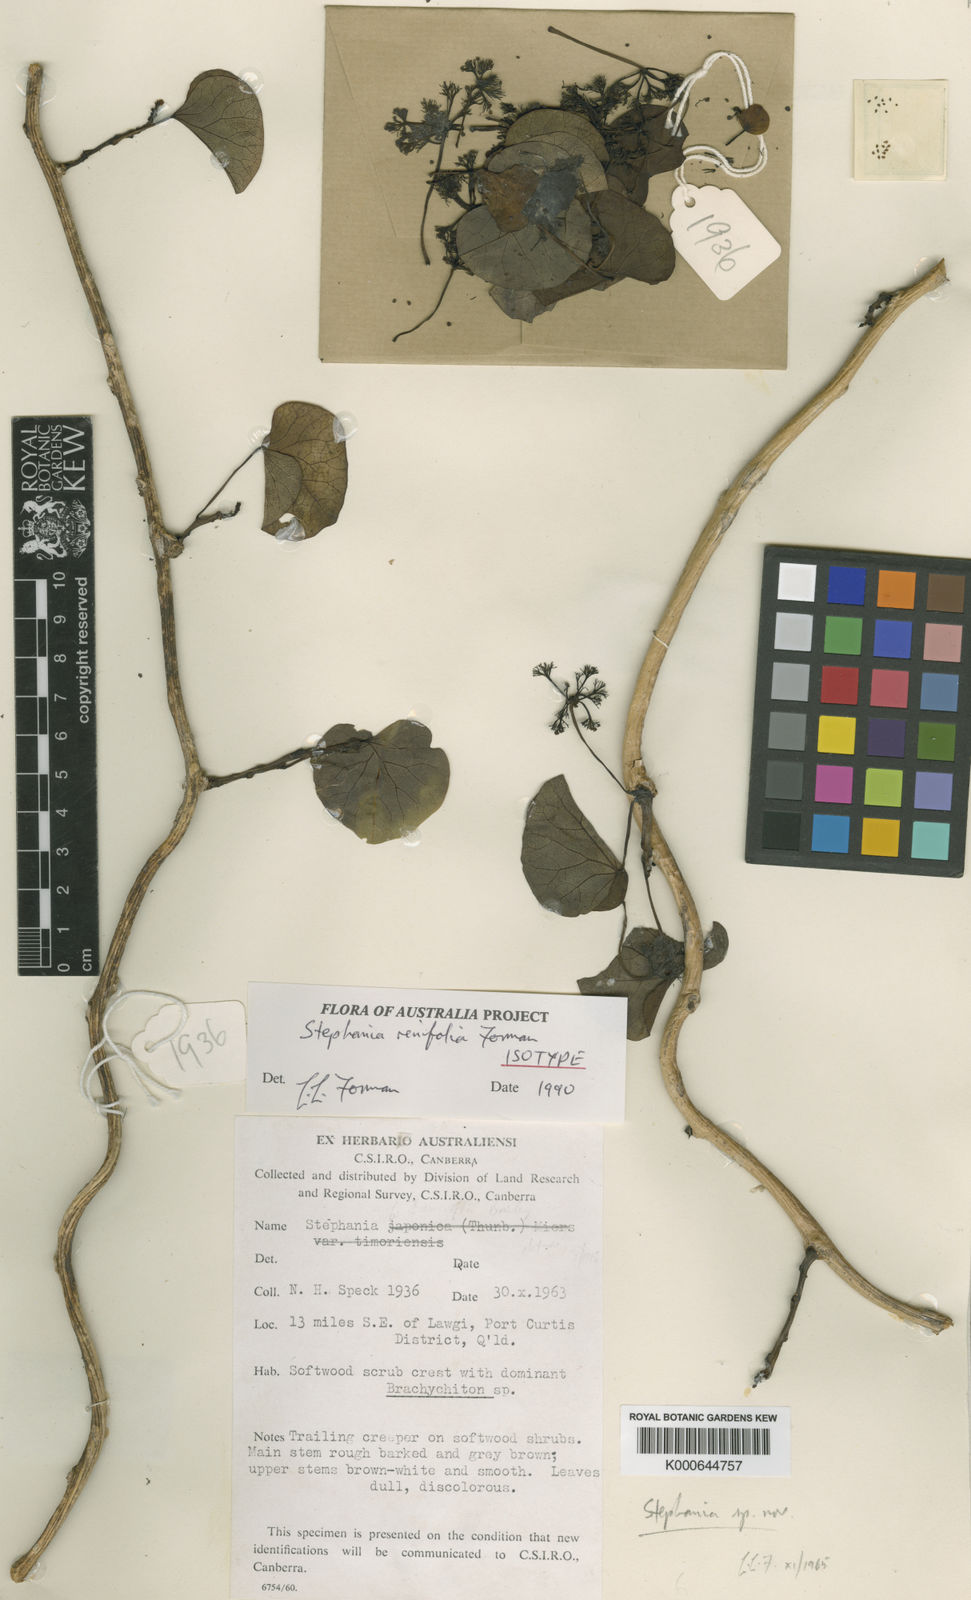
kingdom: Plantae
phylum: Tracheophyta
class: Magnoliopsida
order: Ranunculales
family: Menispermaceae
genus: Stephania
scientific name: Stephania renifolia
